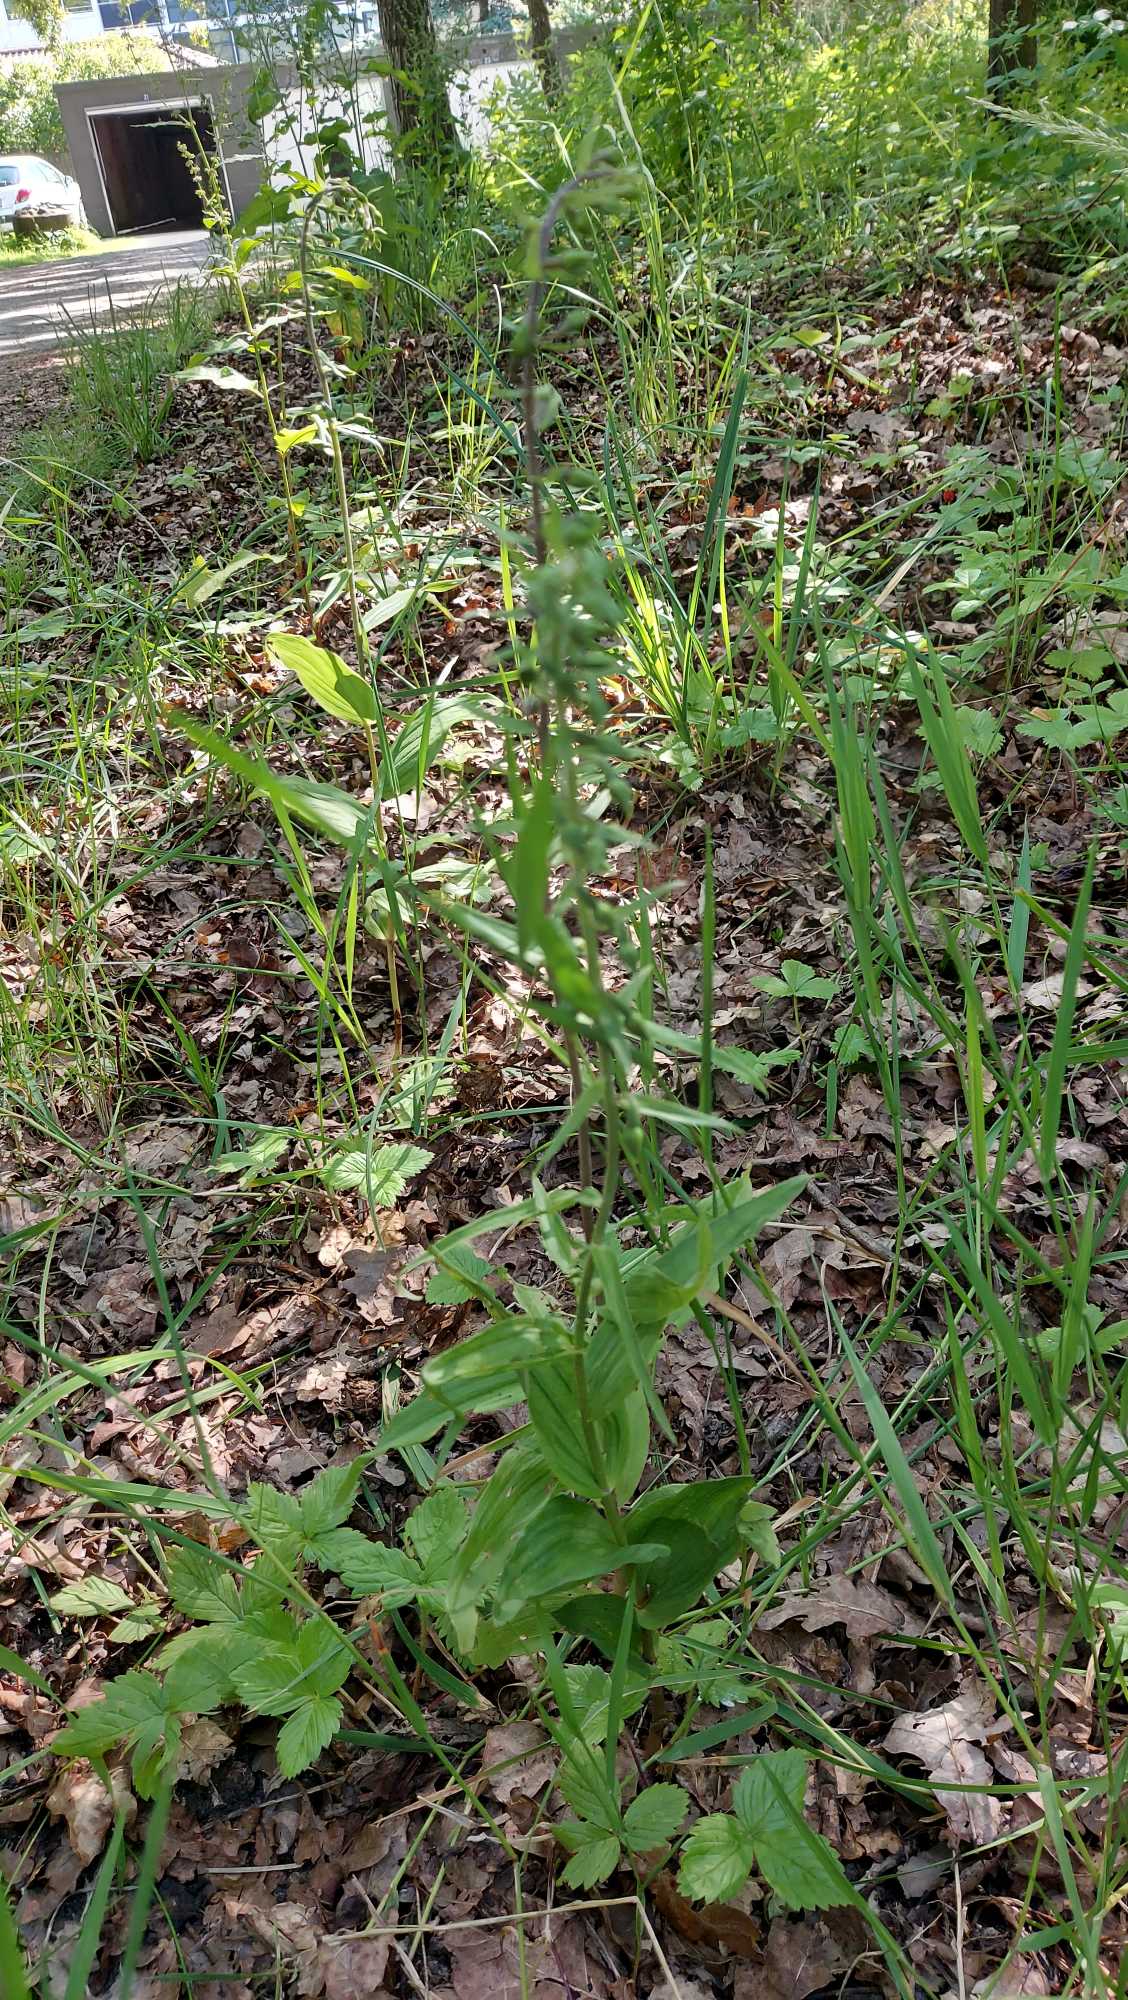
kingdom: Plantae
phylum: Tracheophyta
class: Liliopsida
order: Asparagales
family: Orchidaceae
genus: Epipactis
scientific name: Epipactis helleborine
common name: Skov-hullæbe
